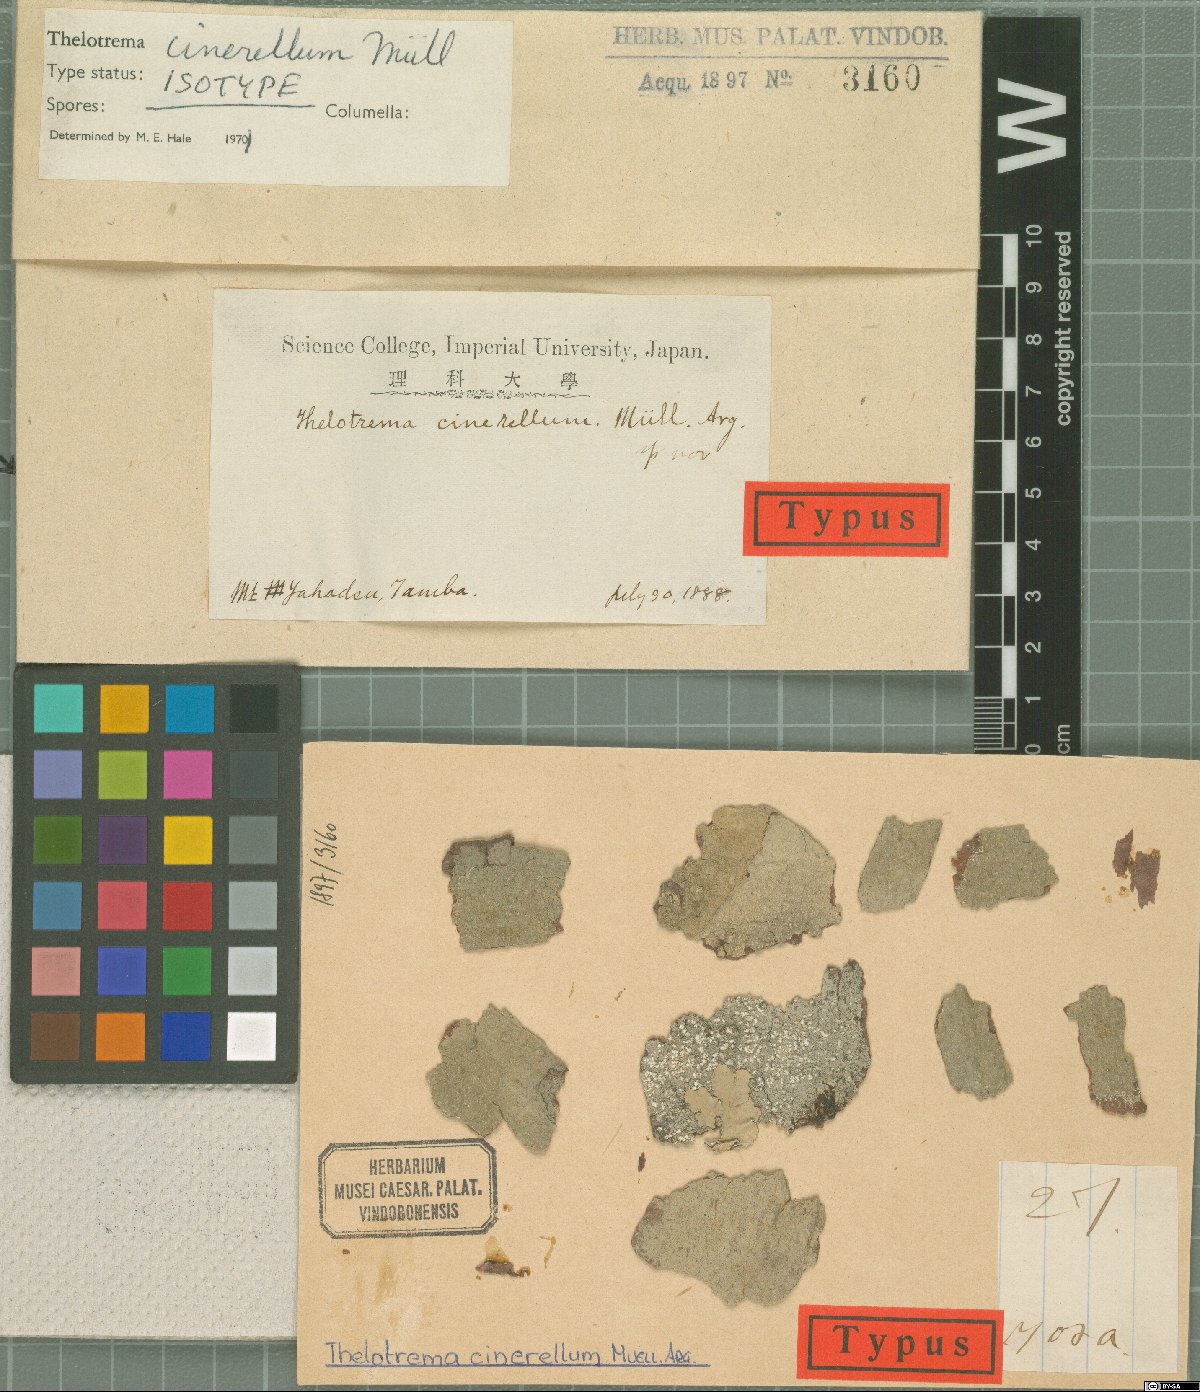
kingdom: Fungi
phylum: Ascomycota
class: Lecanoromycetes
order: Ostropales
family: Graphidaceae
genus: Thelotrema
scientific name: Thelotrema cinerellum
